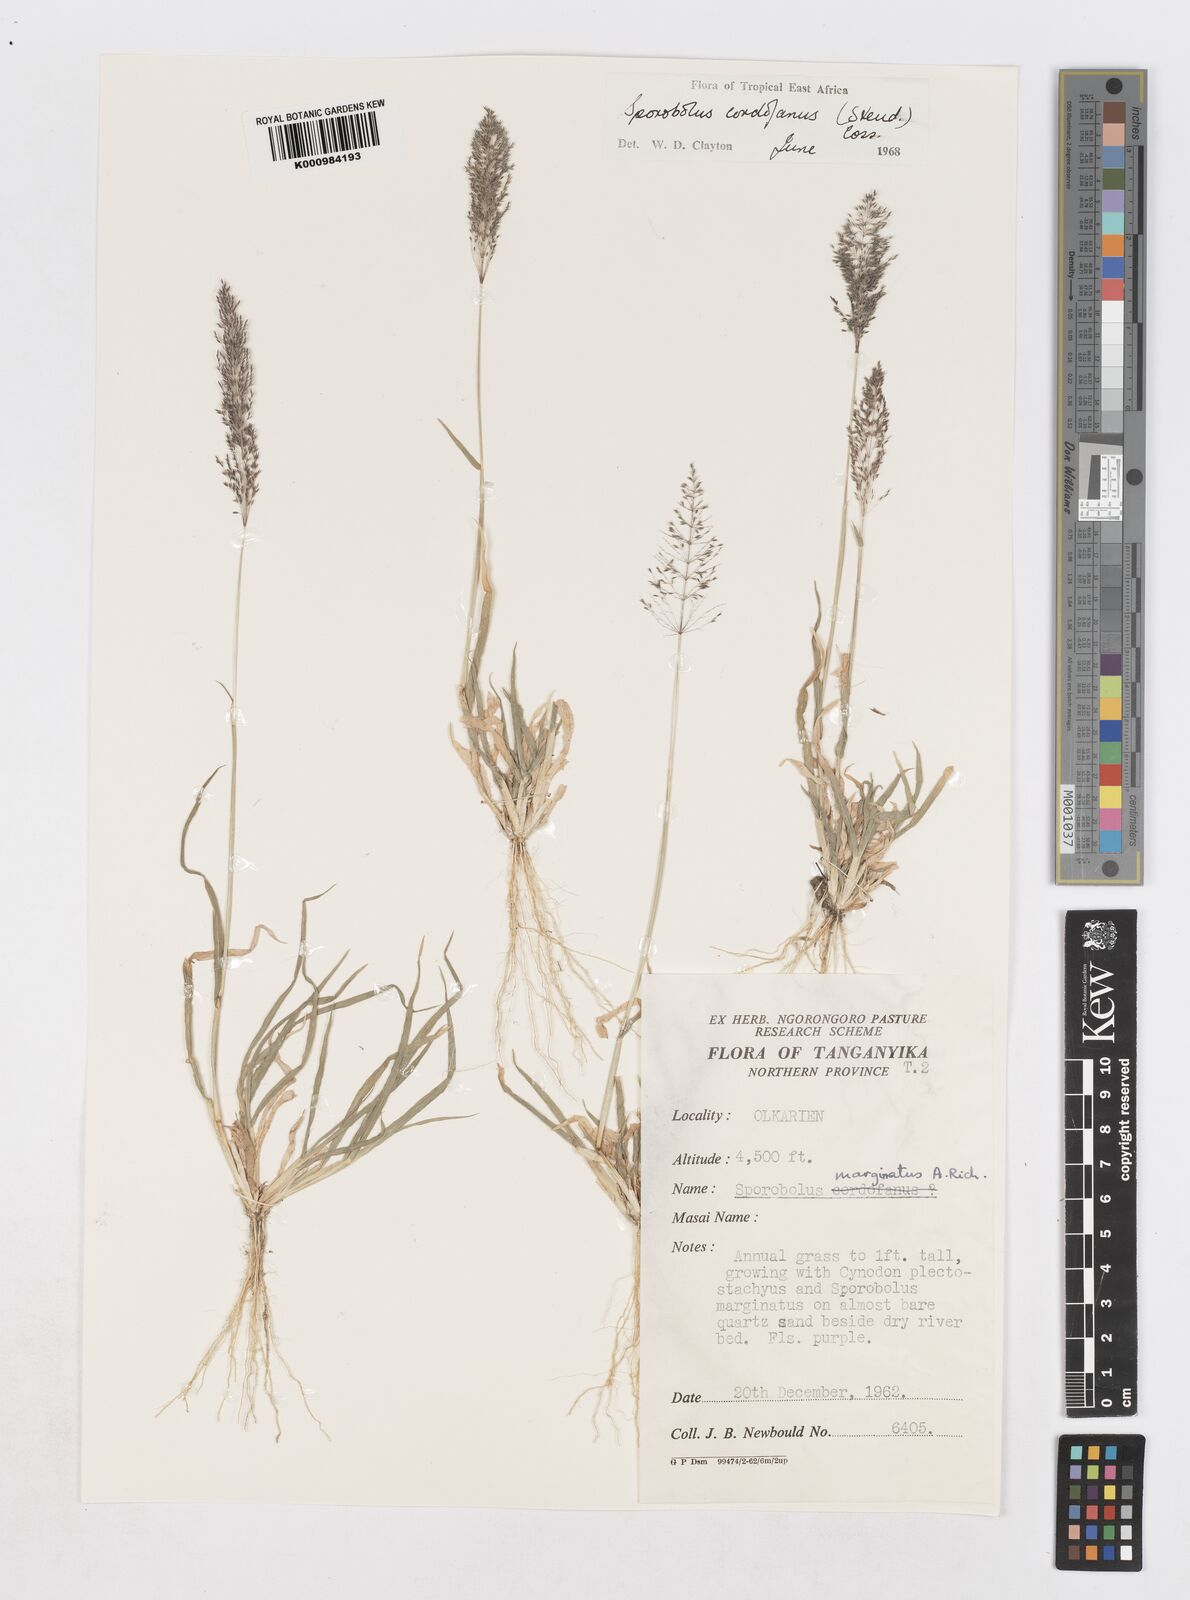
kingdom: Plantae
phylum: Tracheophyta
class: Liliopsida
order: Poales
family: Poaceae
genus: Sporobolus
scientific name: Sporobolus cordofanus
